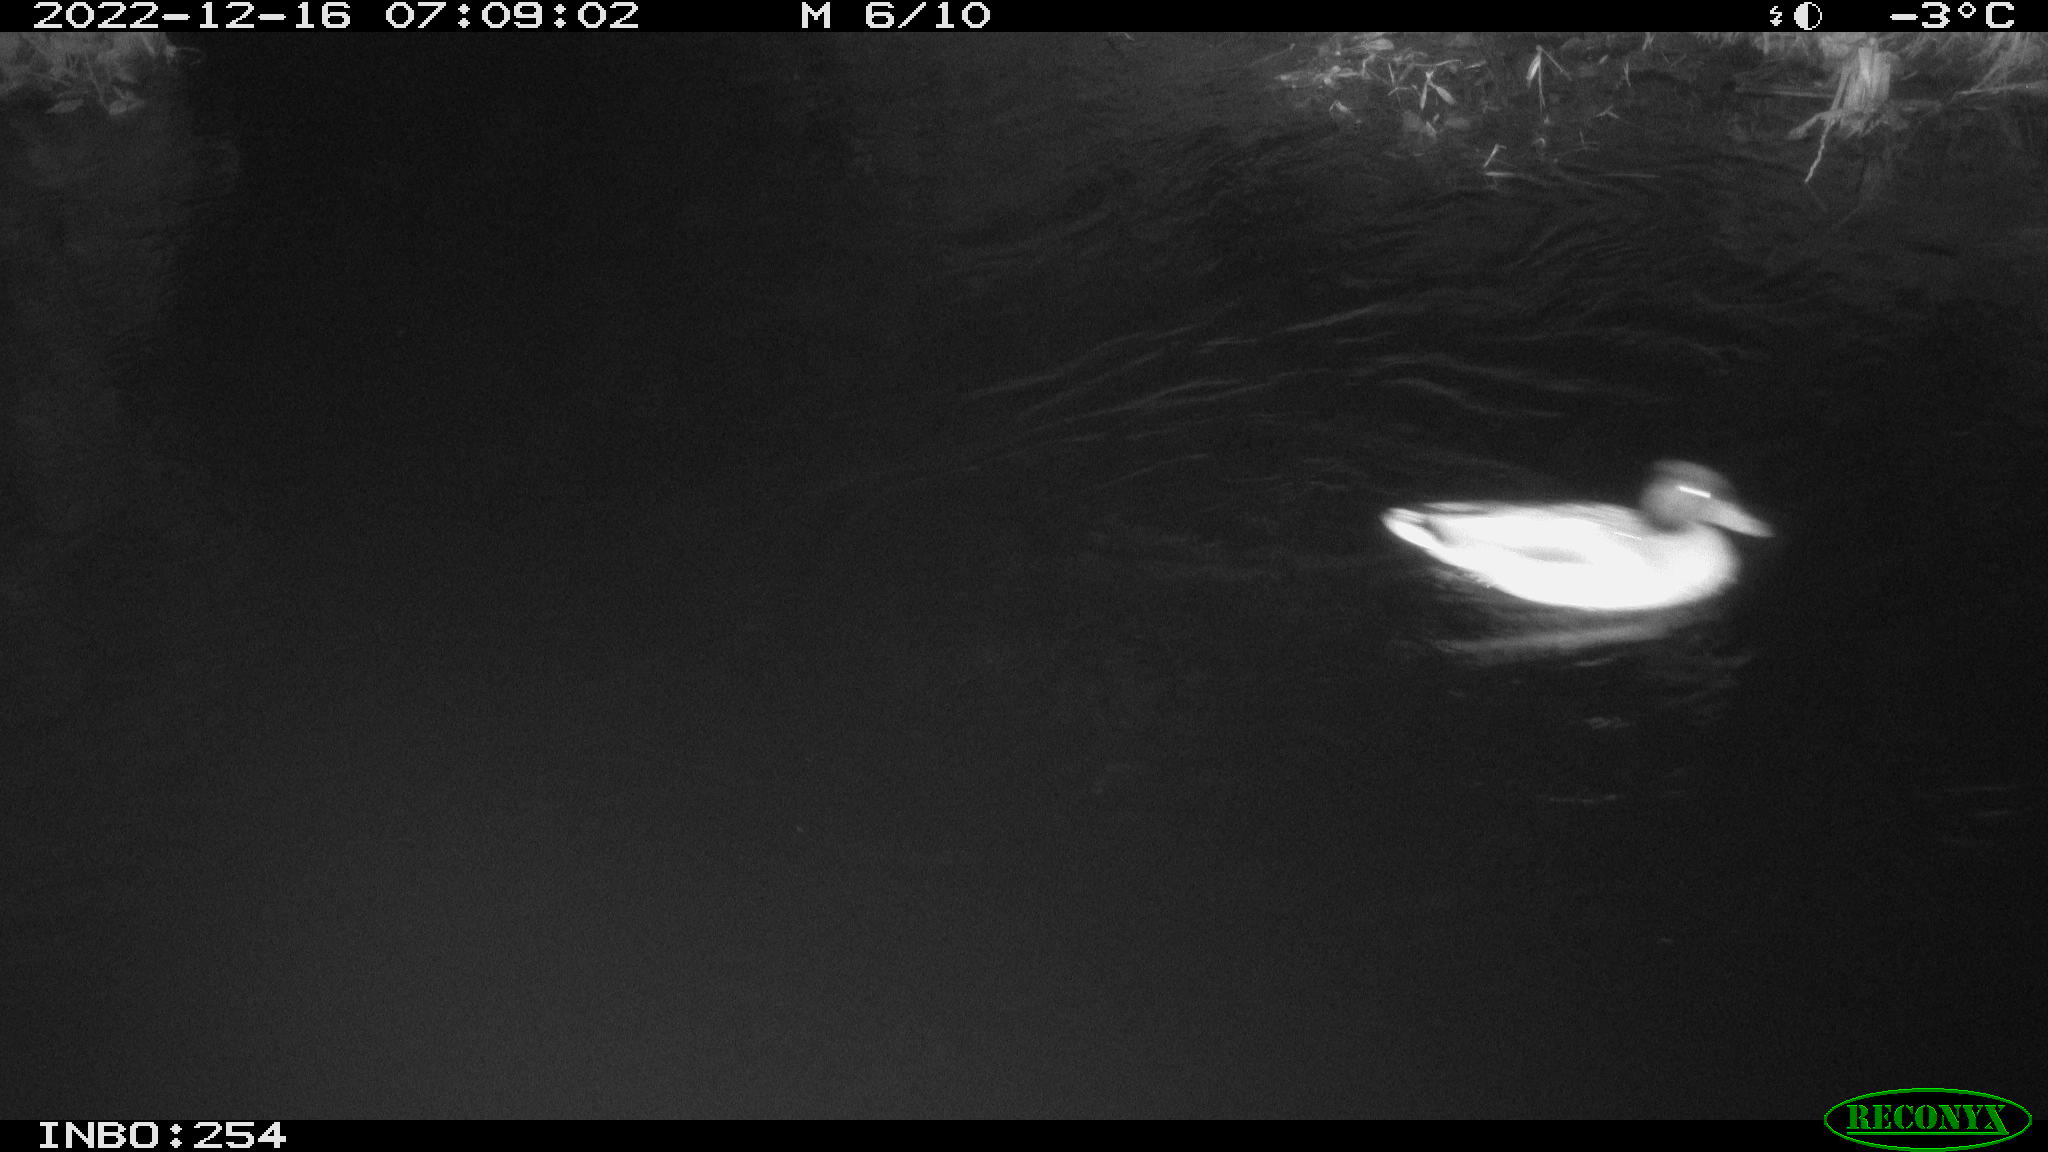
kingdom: Animalia
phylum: Chordata
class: Aves
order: Anseriformes
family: Anatidae
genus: Anas
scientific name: Anas
